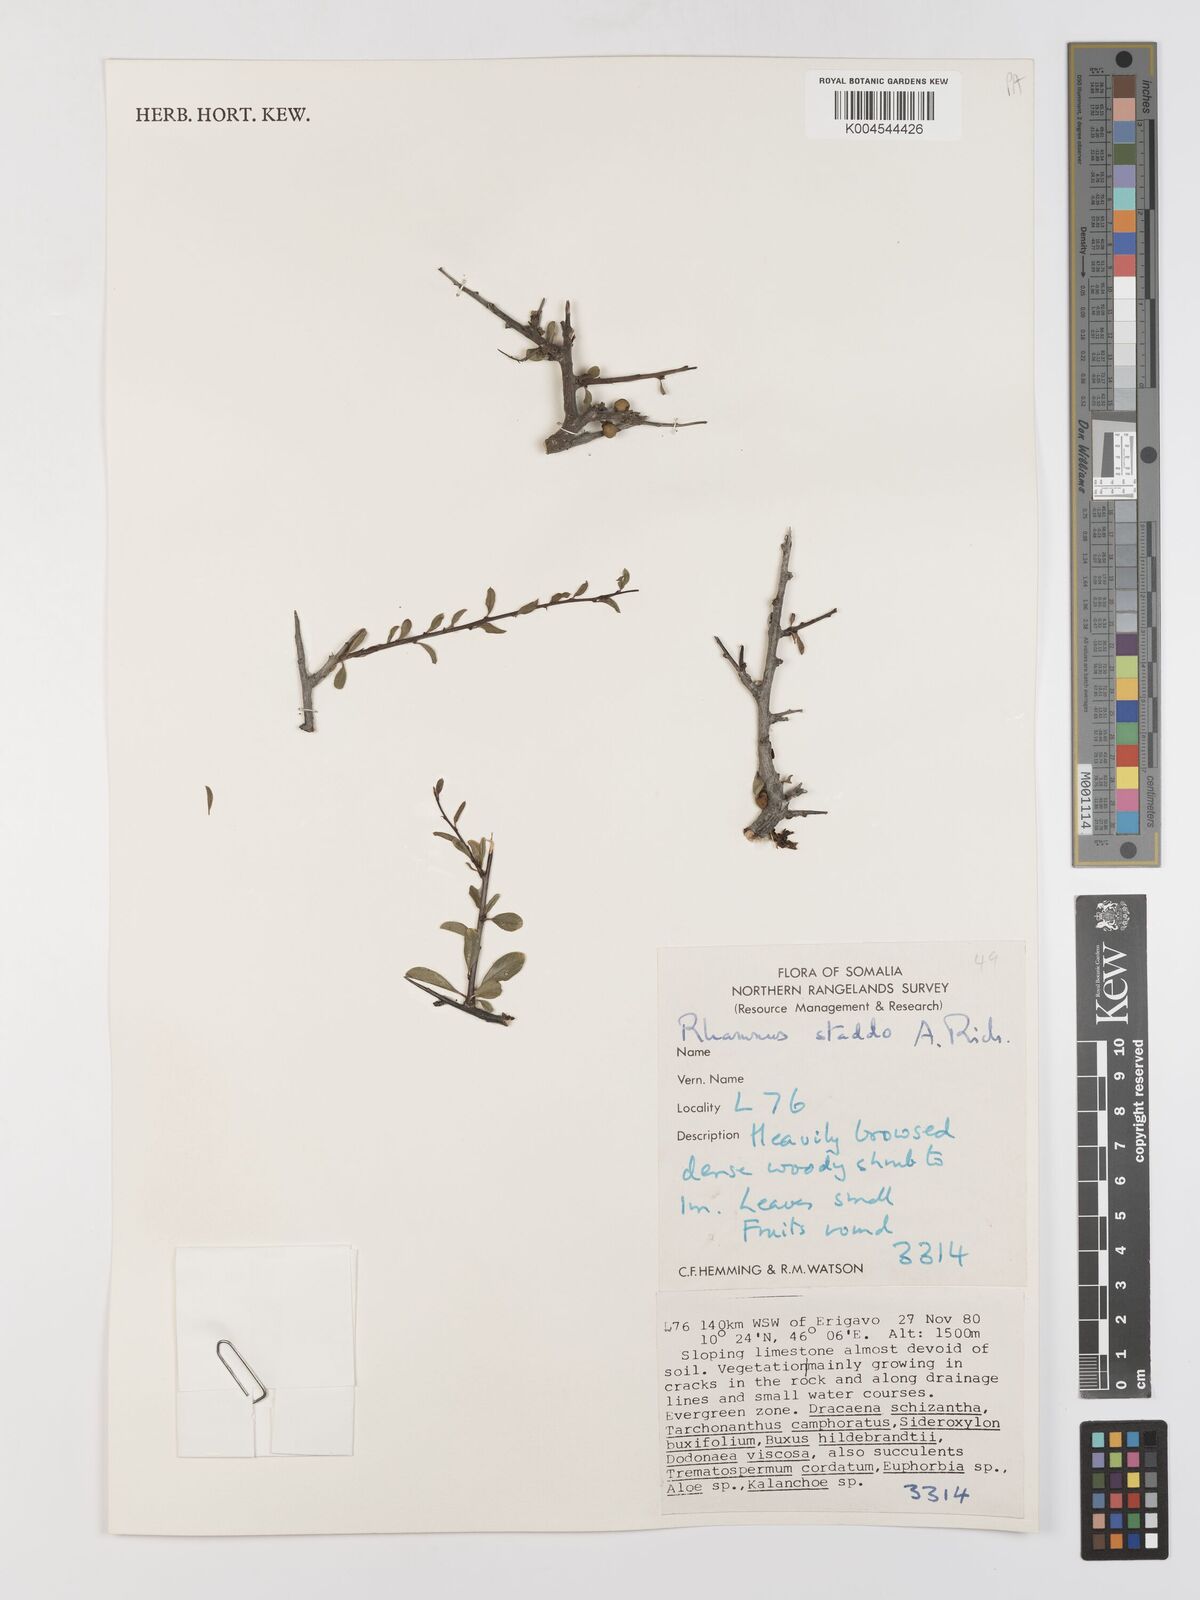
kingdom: Plantae
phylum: Tracheophyta
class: Magnoliopsida
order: Rosales
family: Rhamnaceae
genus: Rhamnus
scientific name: Rhamnus staddo
